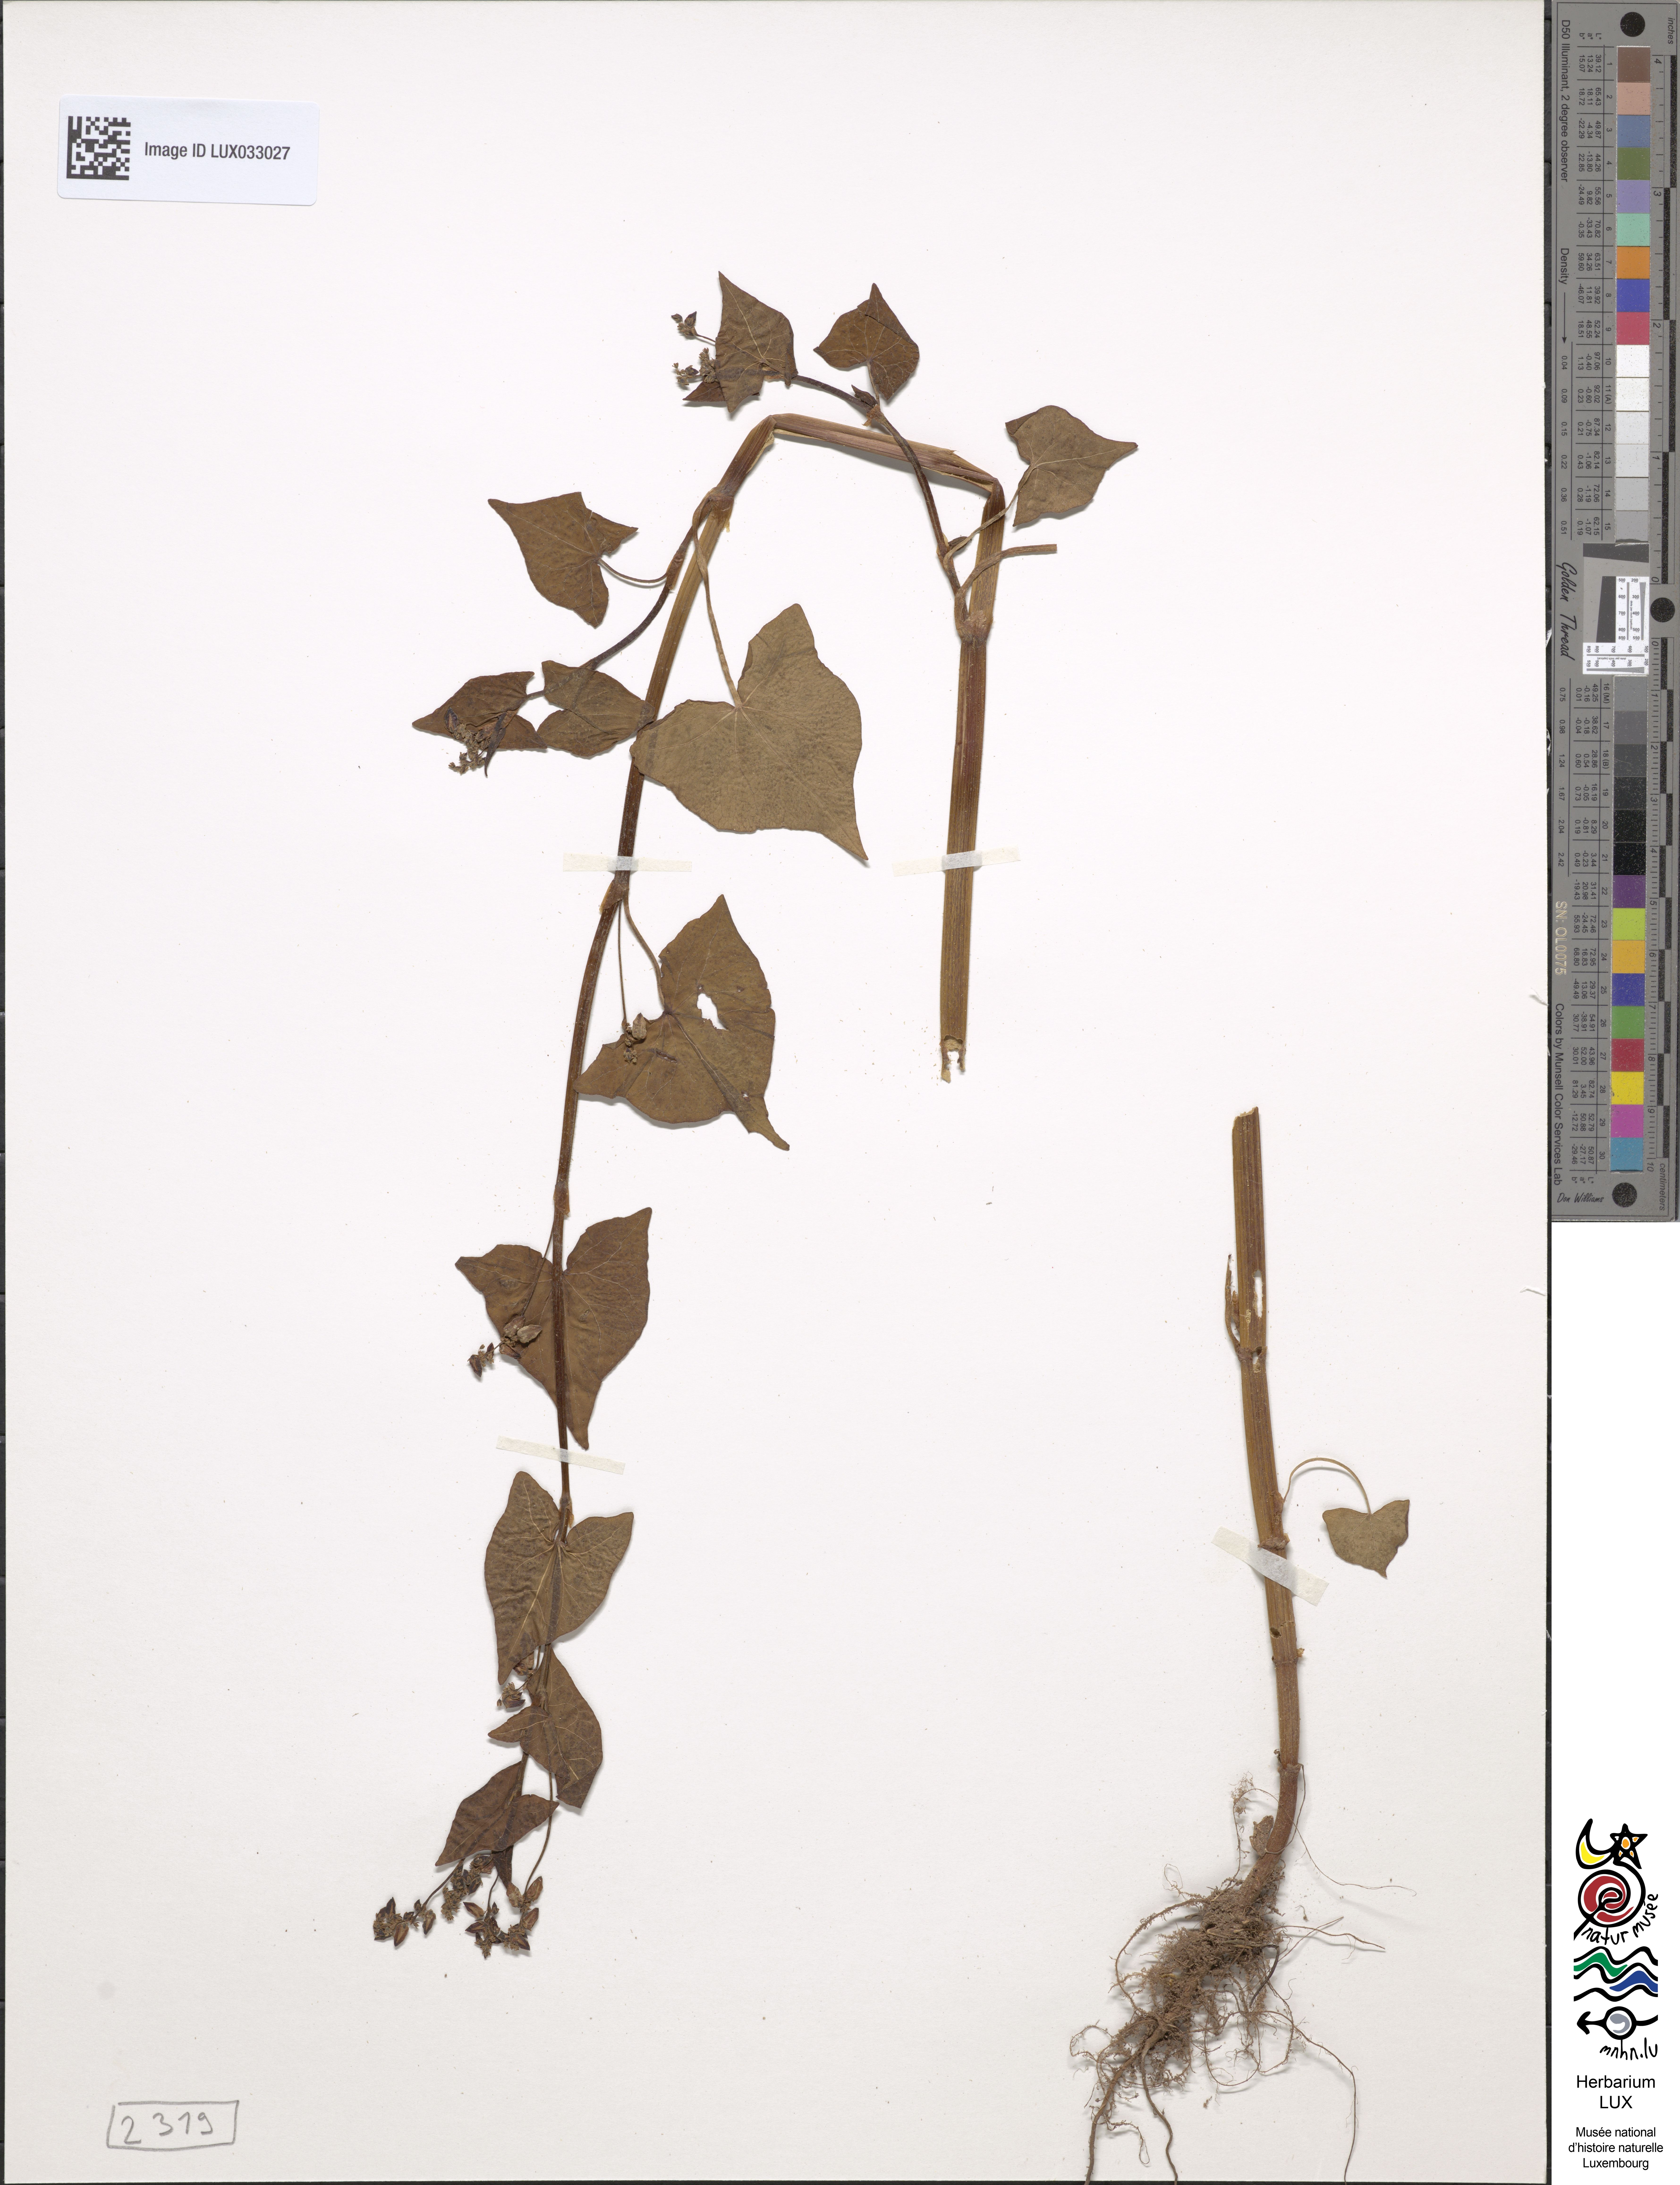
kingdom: Plantae
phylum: Tracheophyta
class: Magnoliopsida
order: Caryophyllales
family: Polygonaceae
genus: Fagopyrum
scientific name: Fagopyrum tataricum
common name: Green buckwheat
